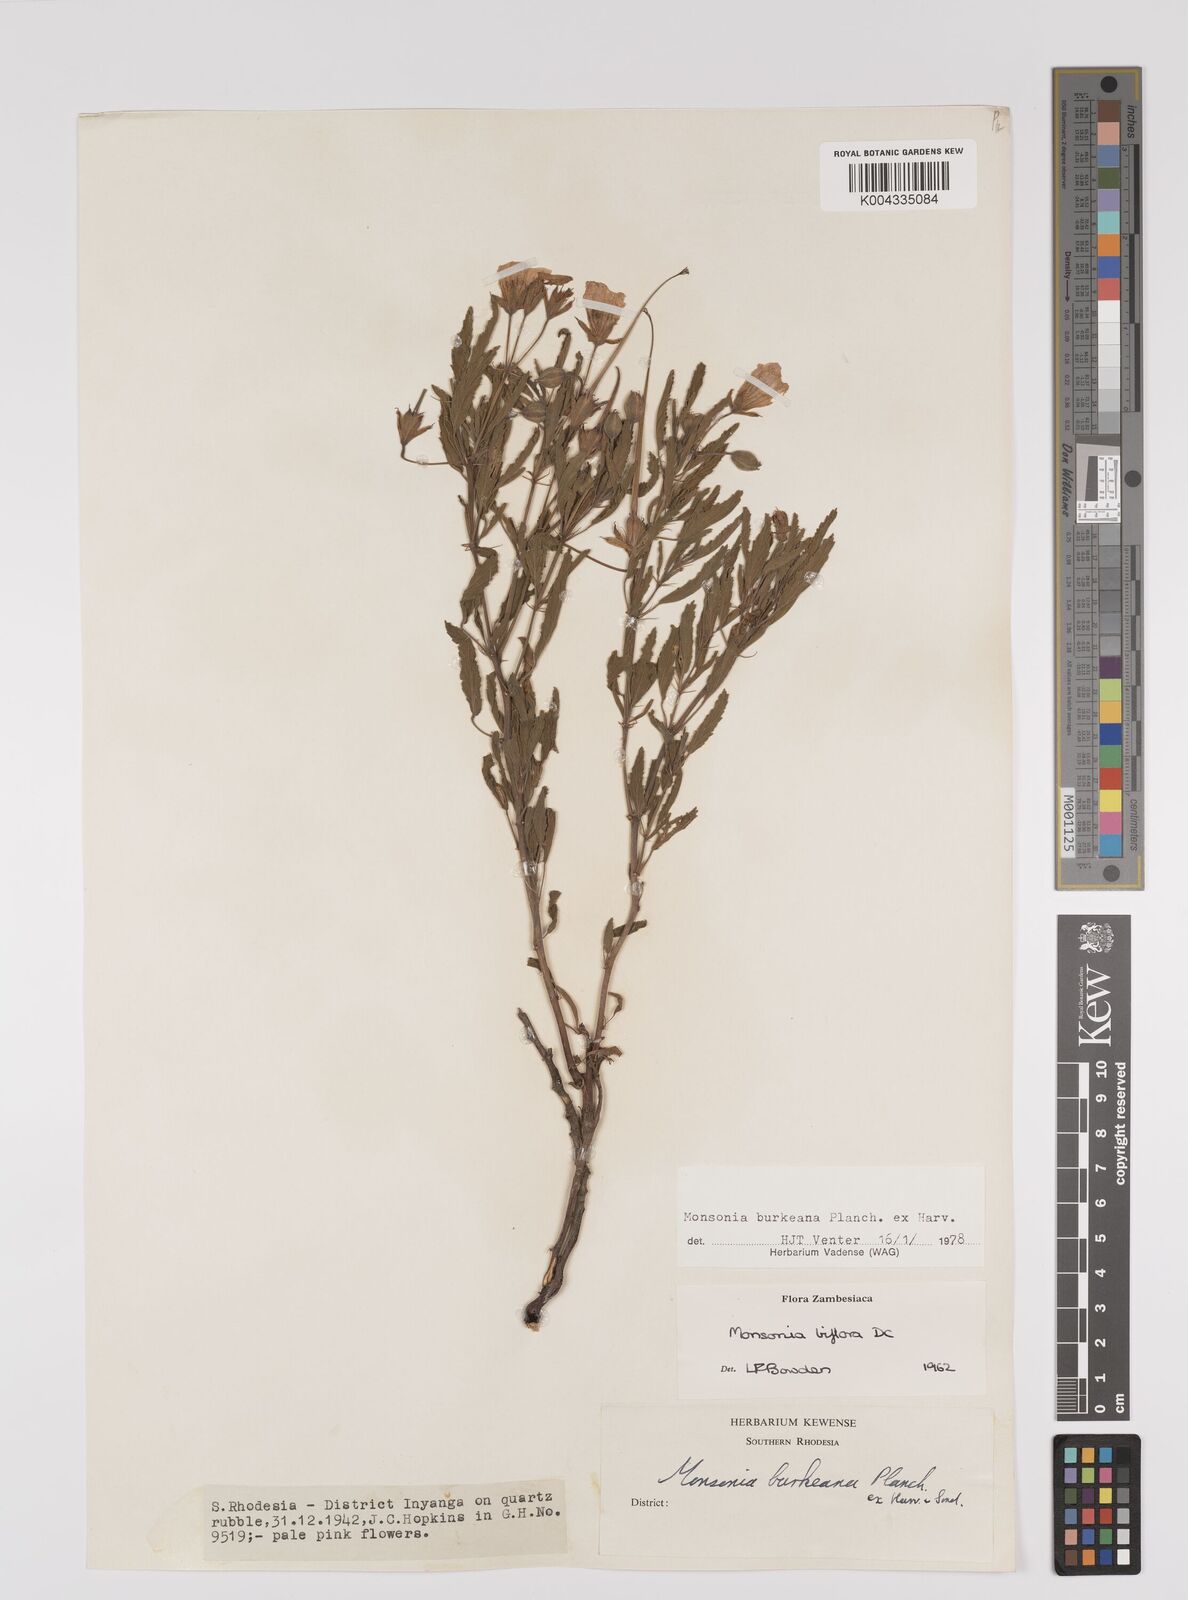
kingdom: Plantae
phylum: Tracheophyta
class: Magnoliopsida
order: Geraniales
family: Geraniaceae
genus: Monsonia
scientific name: Monsonia biflora
